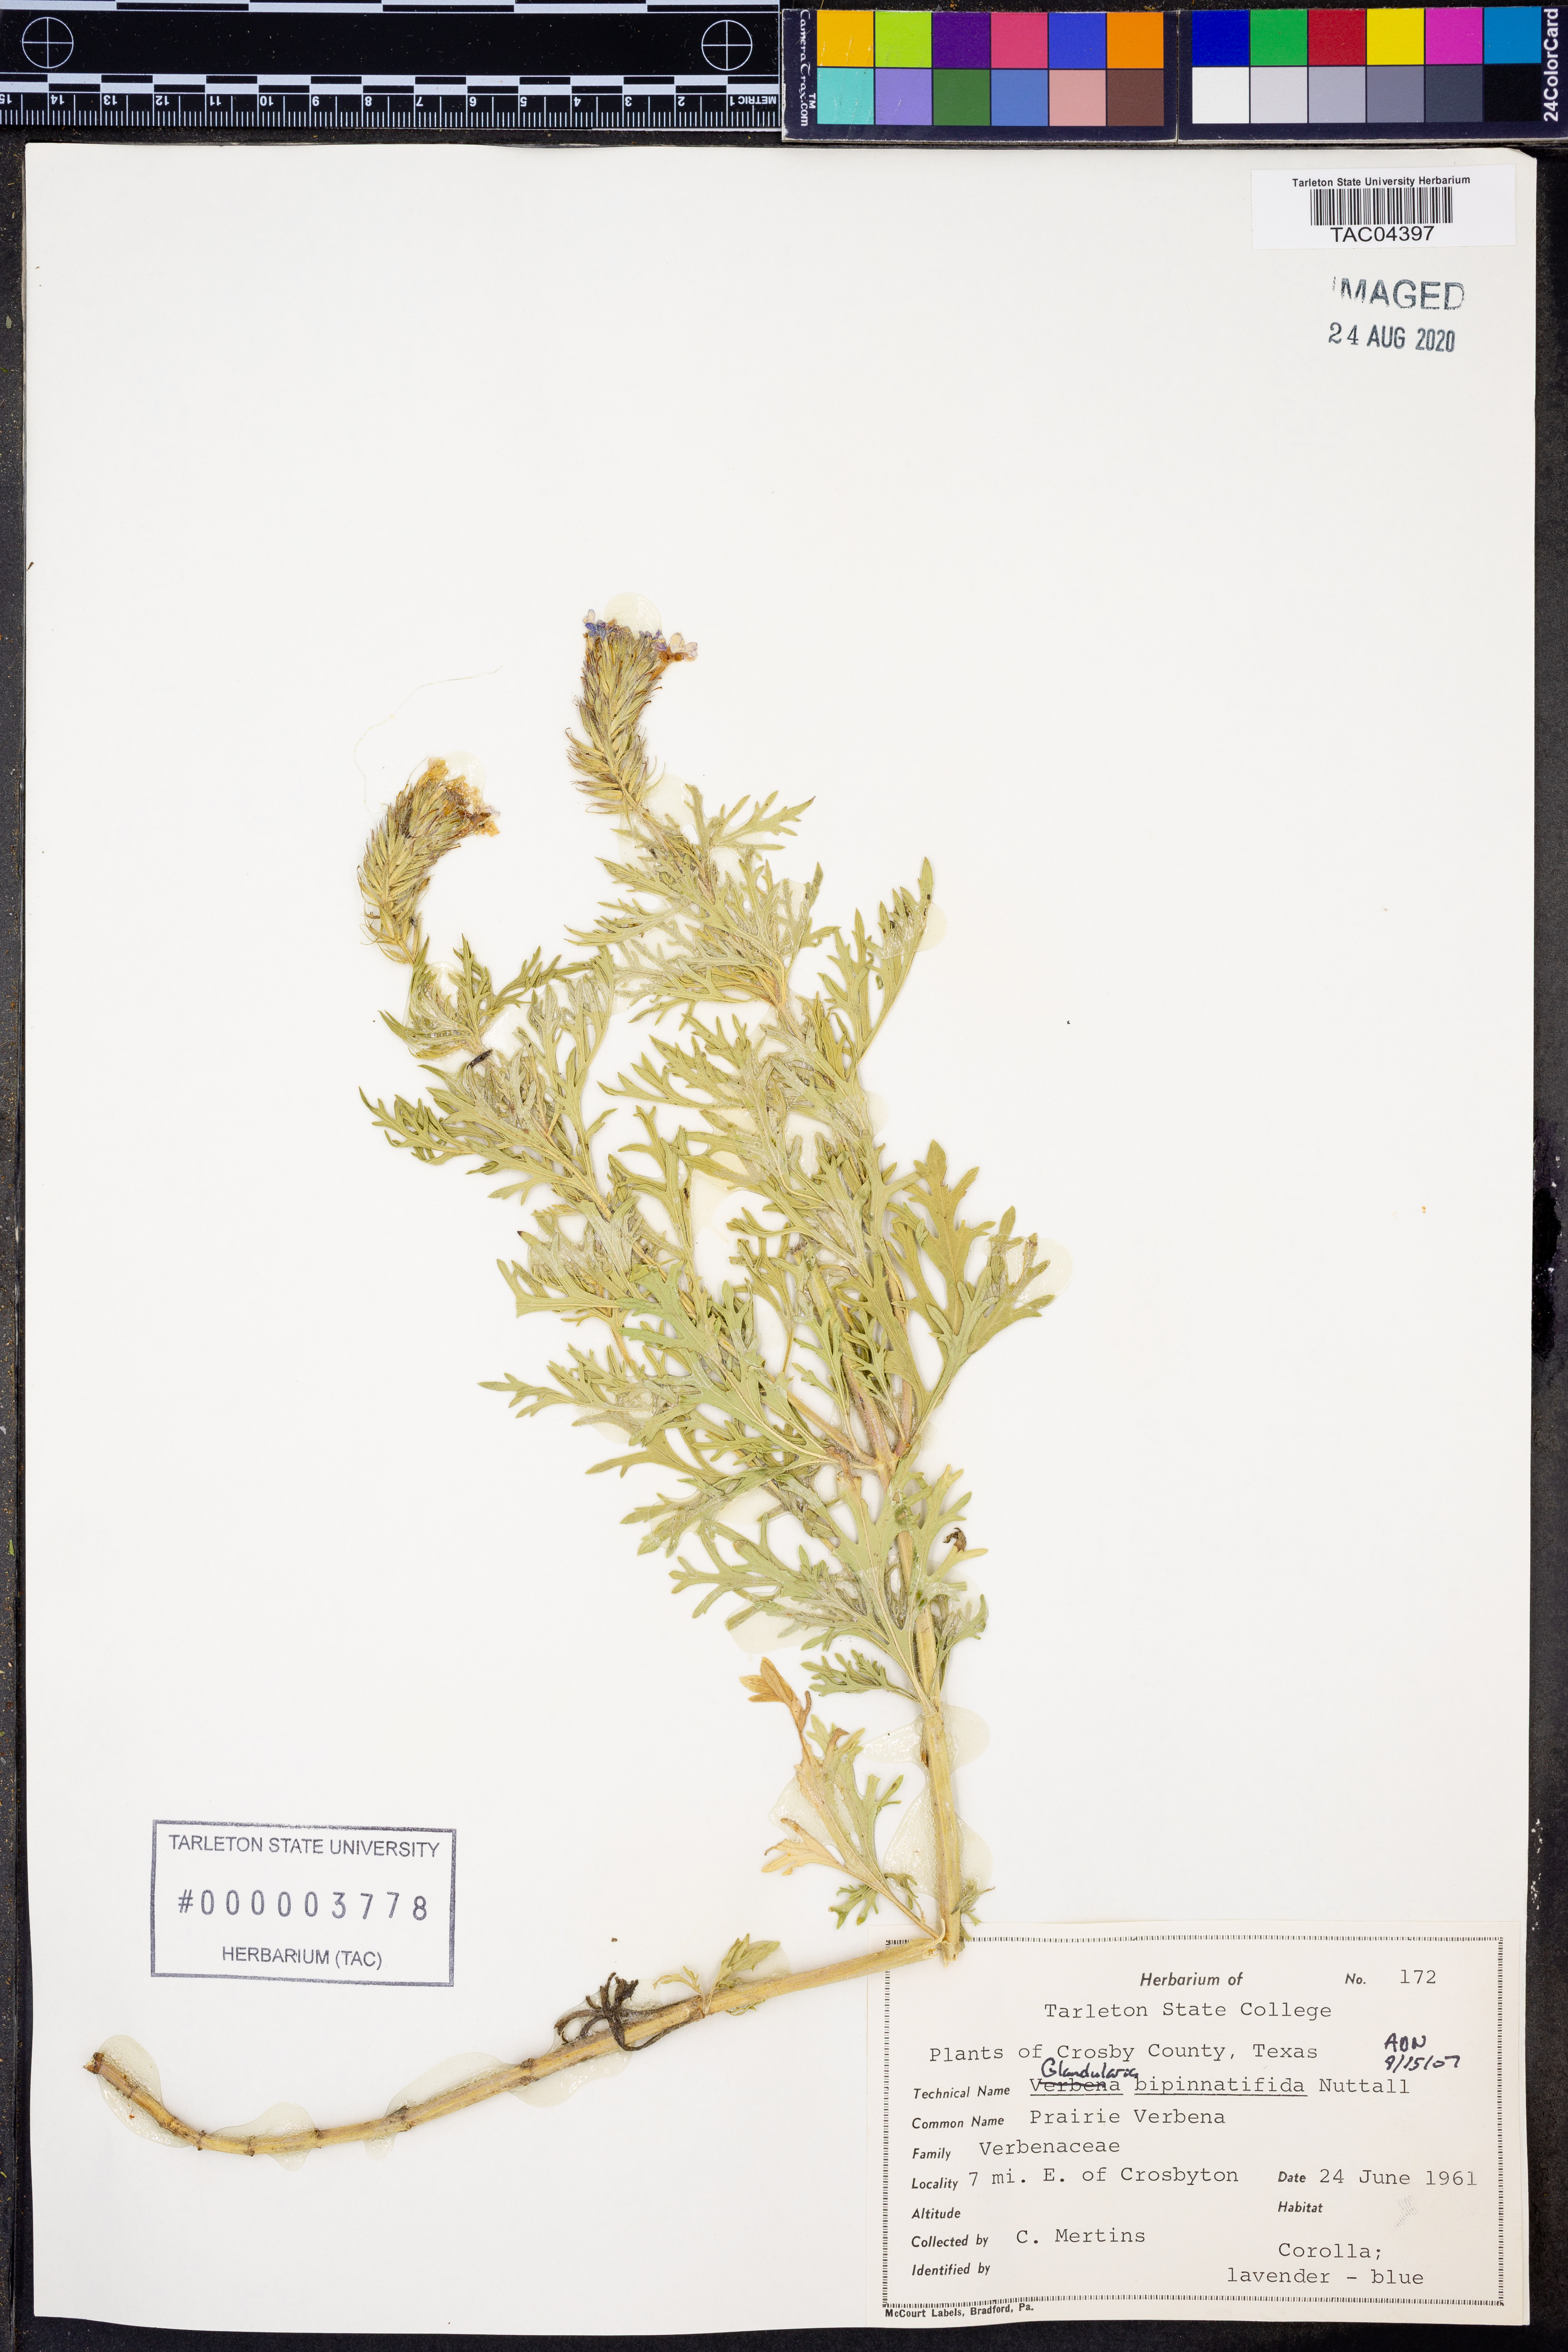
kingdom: Plantae
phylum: Tracheophyta
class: Magnoliopsida
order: Lamiales
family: Verbenaceae
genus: Verbena
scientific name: Verbena bipinnatifida
